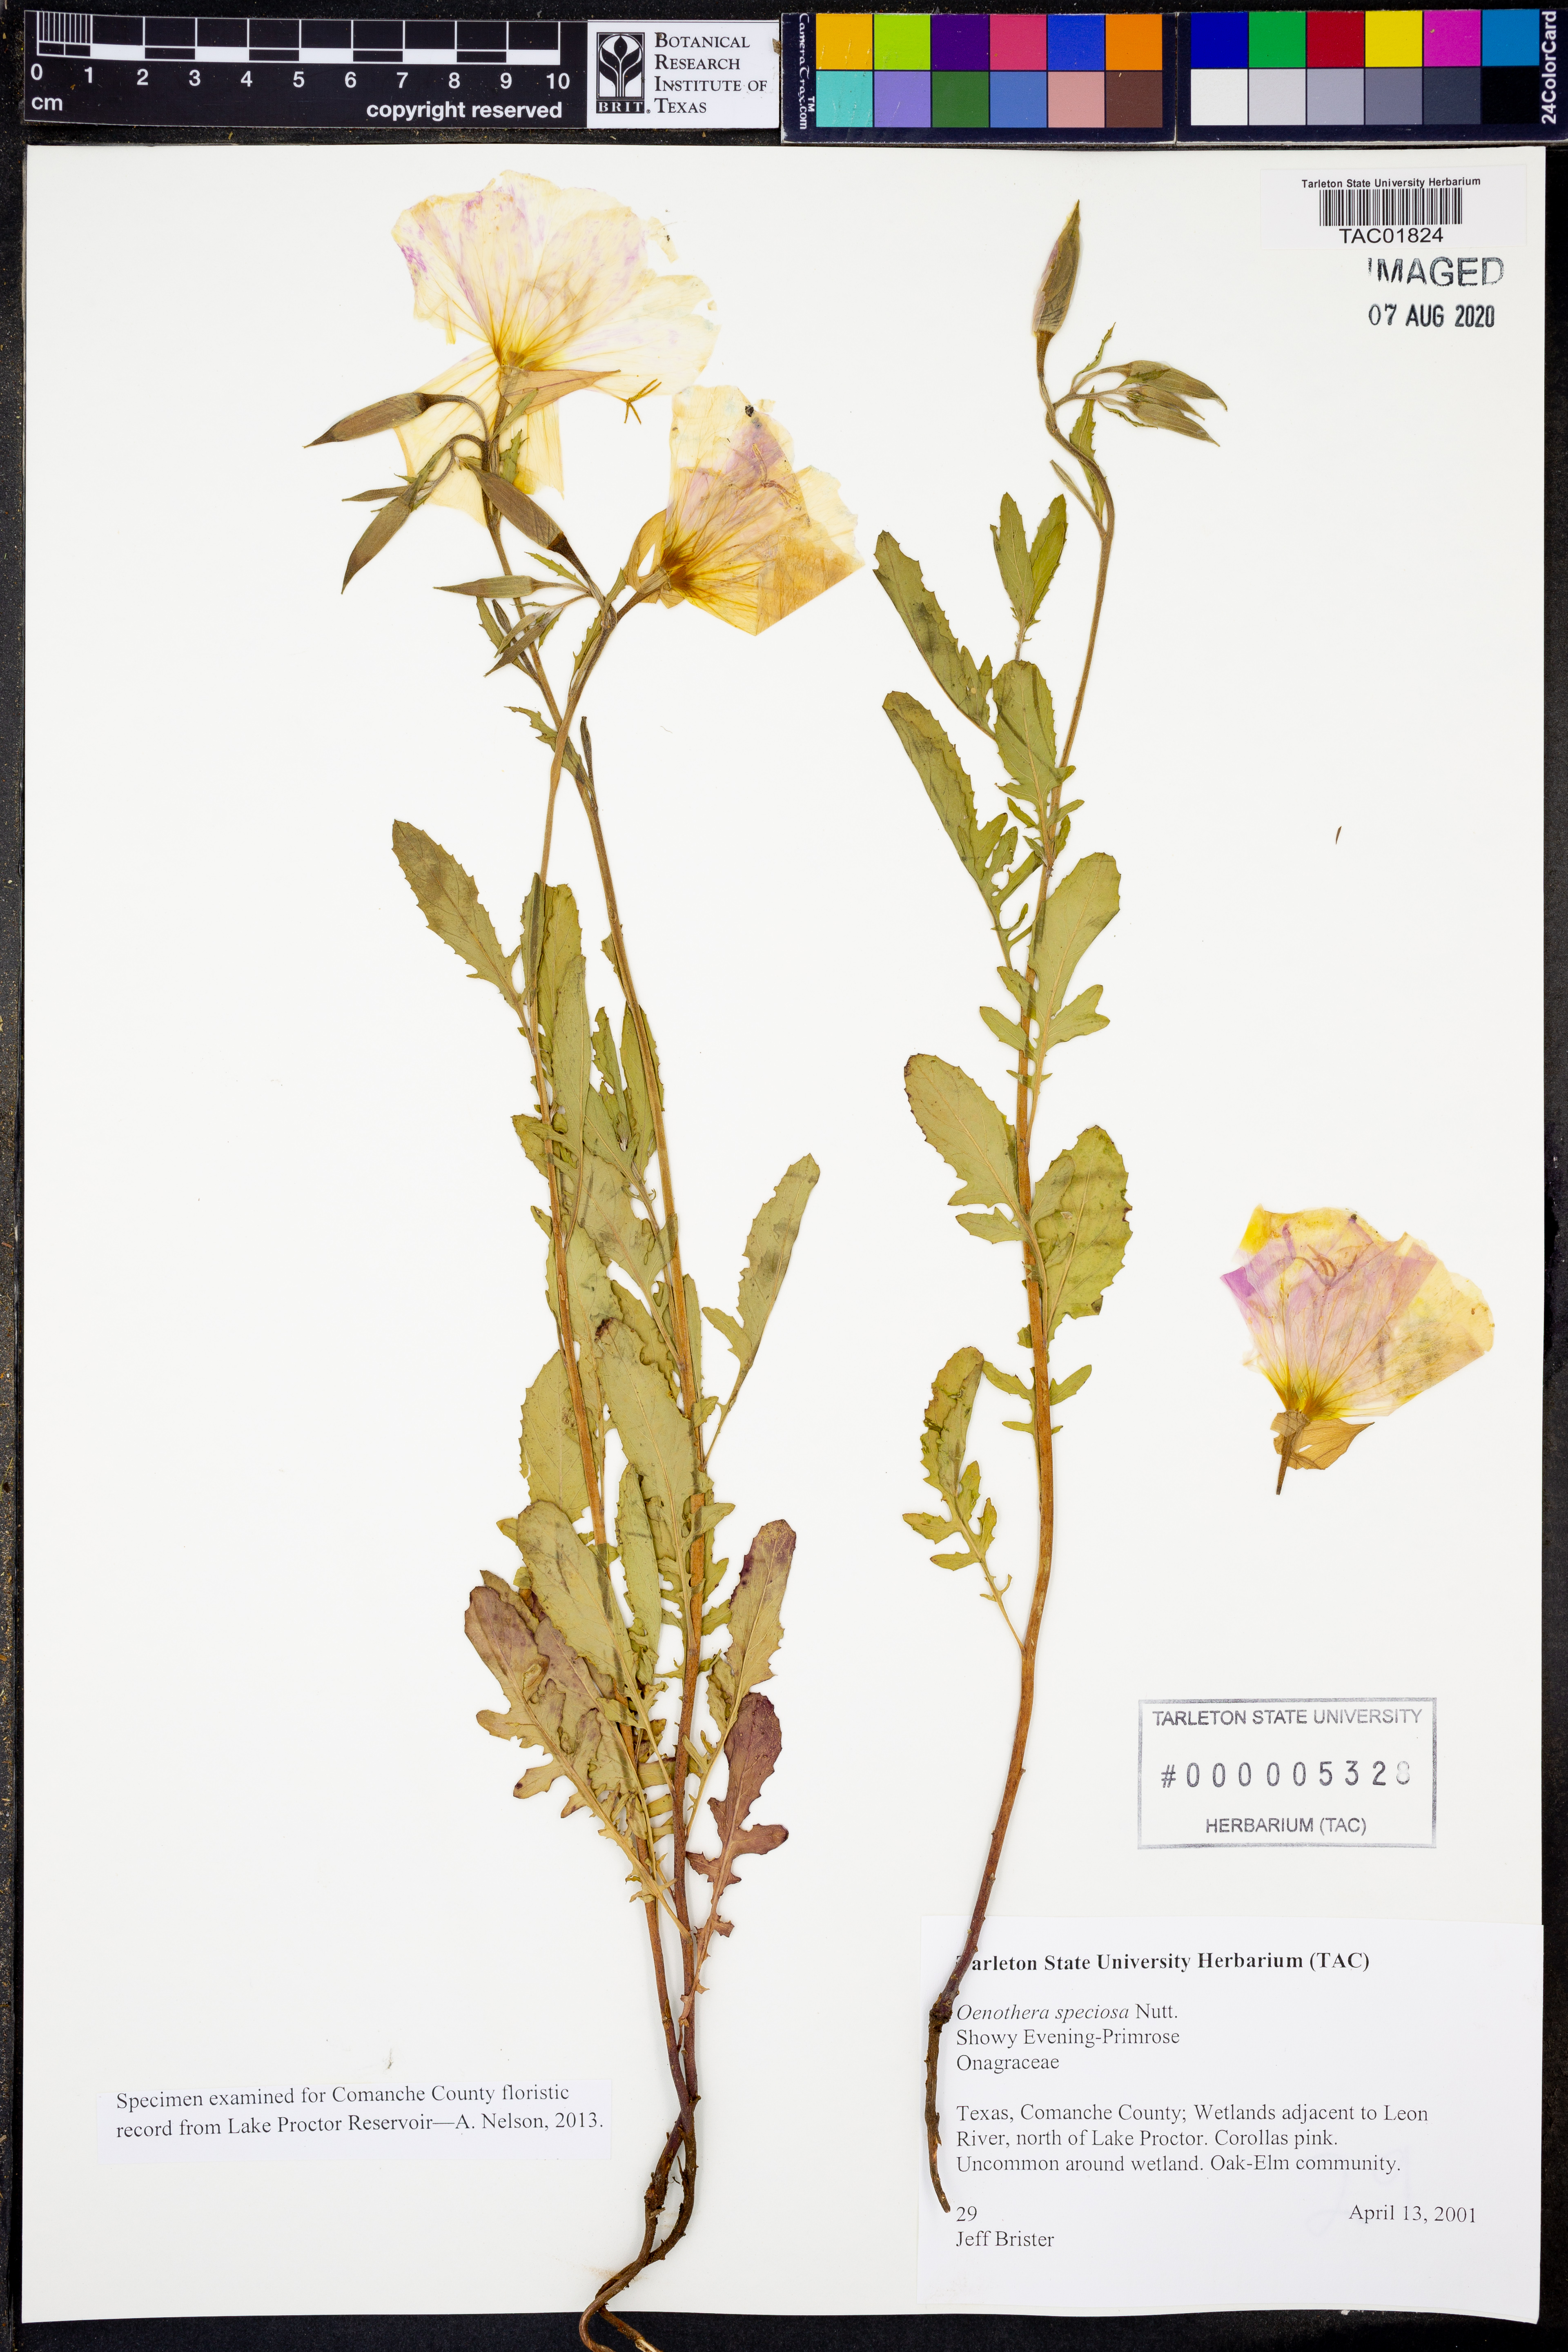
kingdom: Plantae
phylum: Tracheophyta
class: Magnoliopsida
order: Myrtales
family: Onagraceae
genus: Oenothera
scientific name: Oenothera speciosa
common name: White evening-primrose
